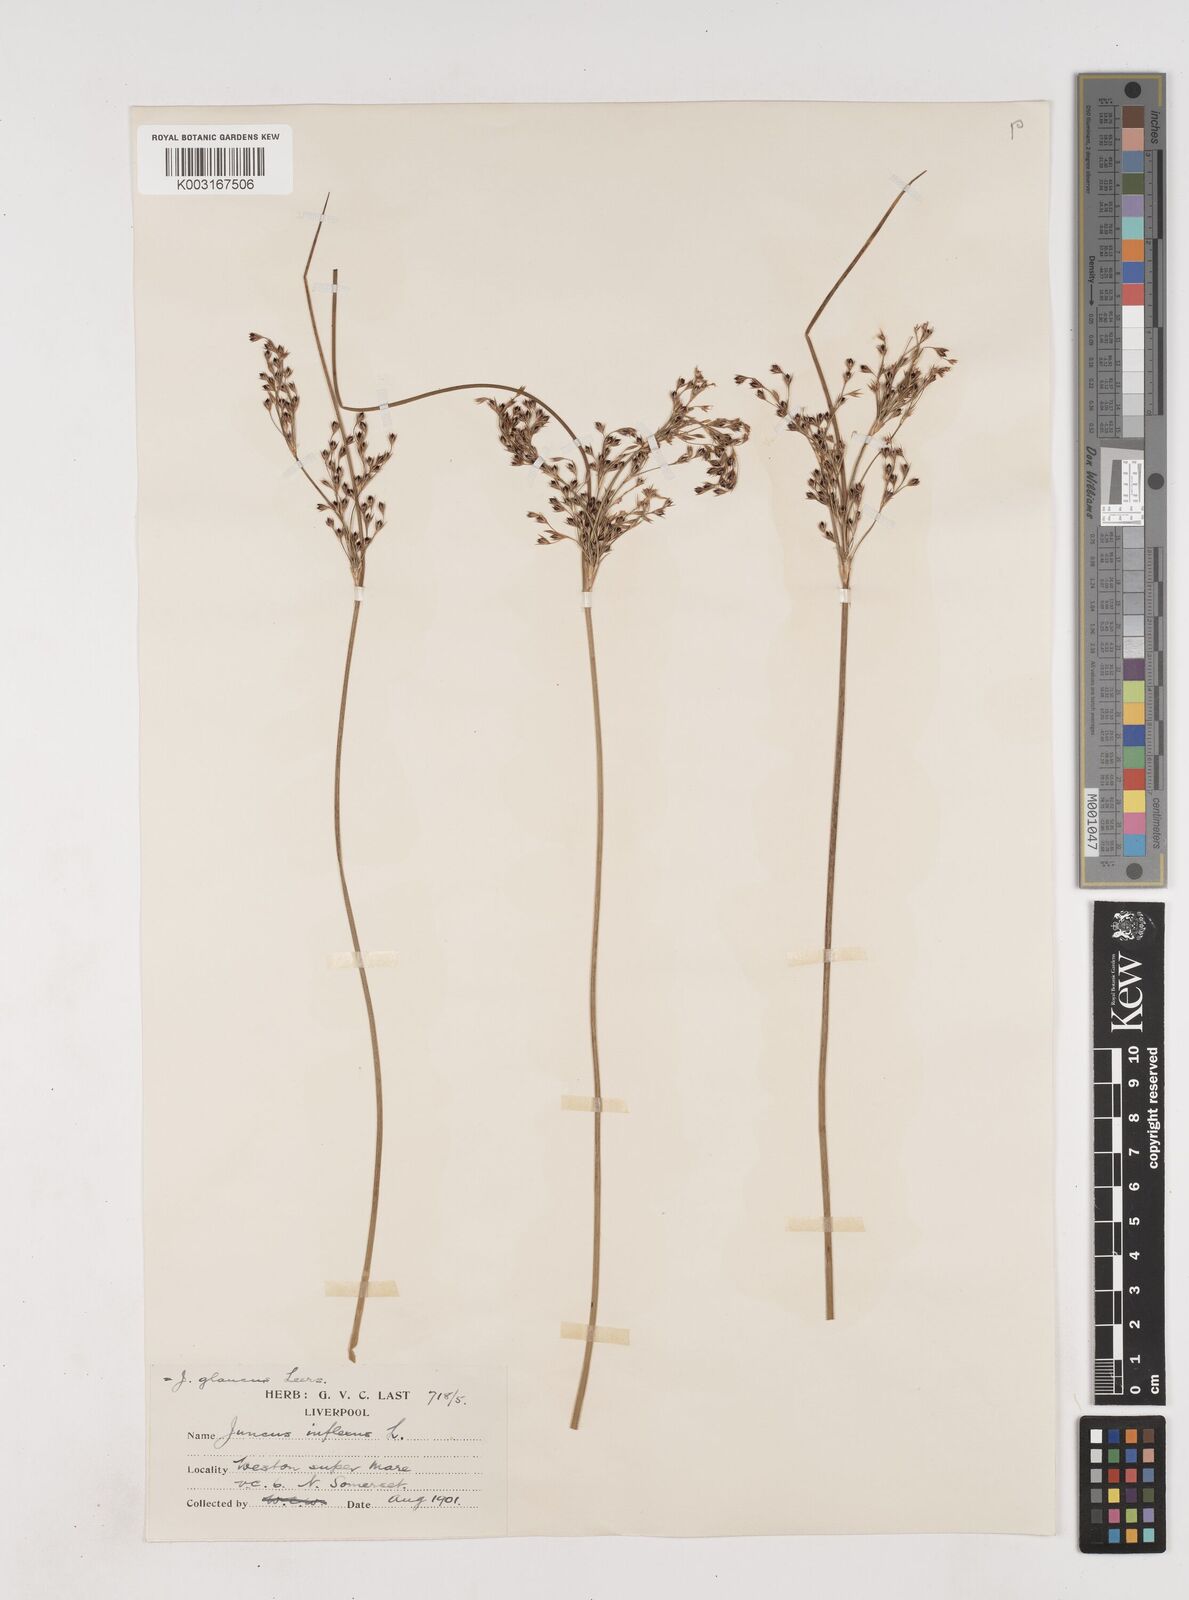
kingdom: Plantae
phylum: Tracheophyta
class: Liliopsida
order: Poales
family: Juncaceae
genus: Juncus
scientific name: Juncus inflexus
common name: Hard rush
